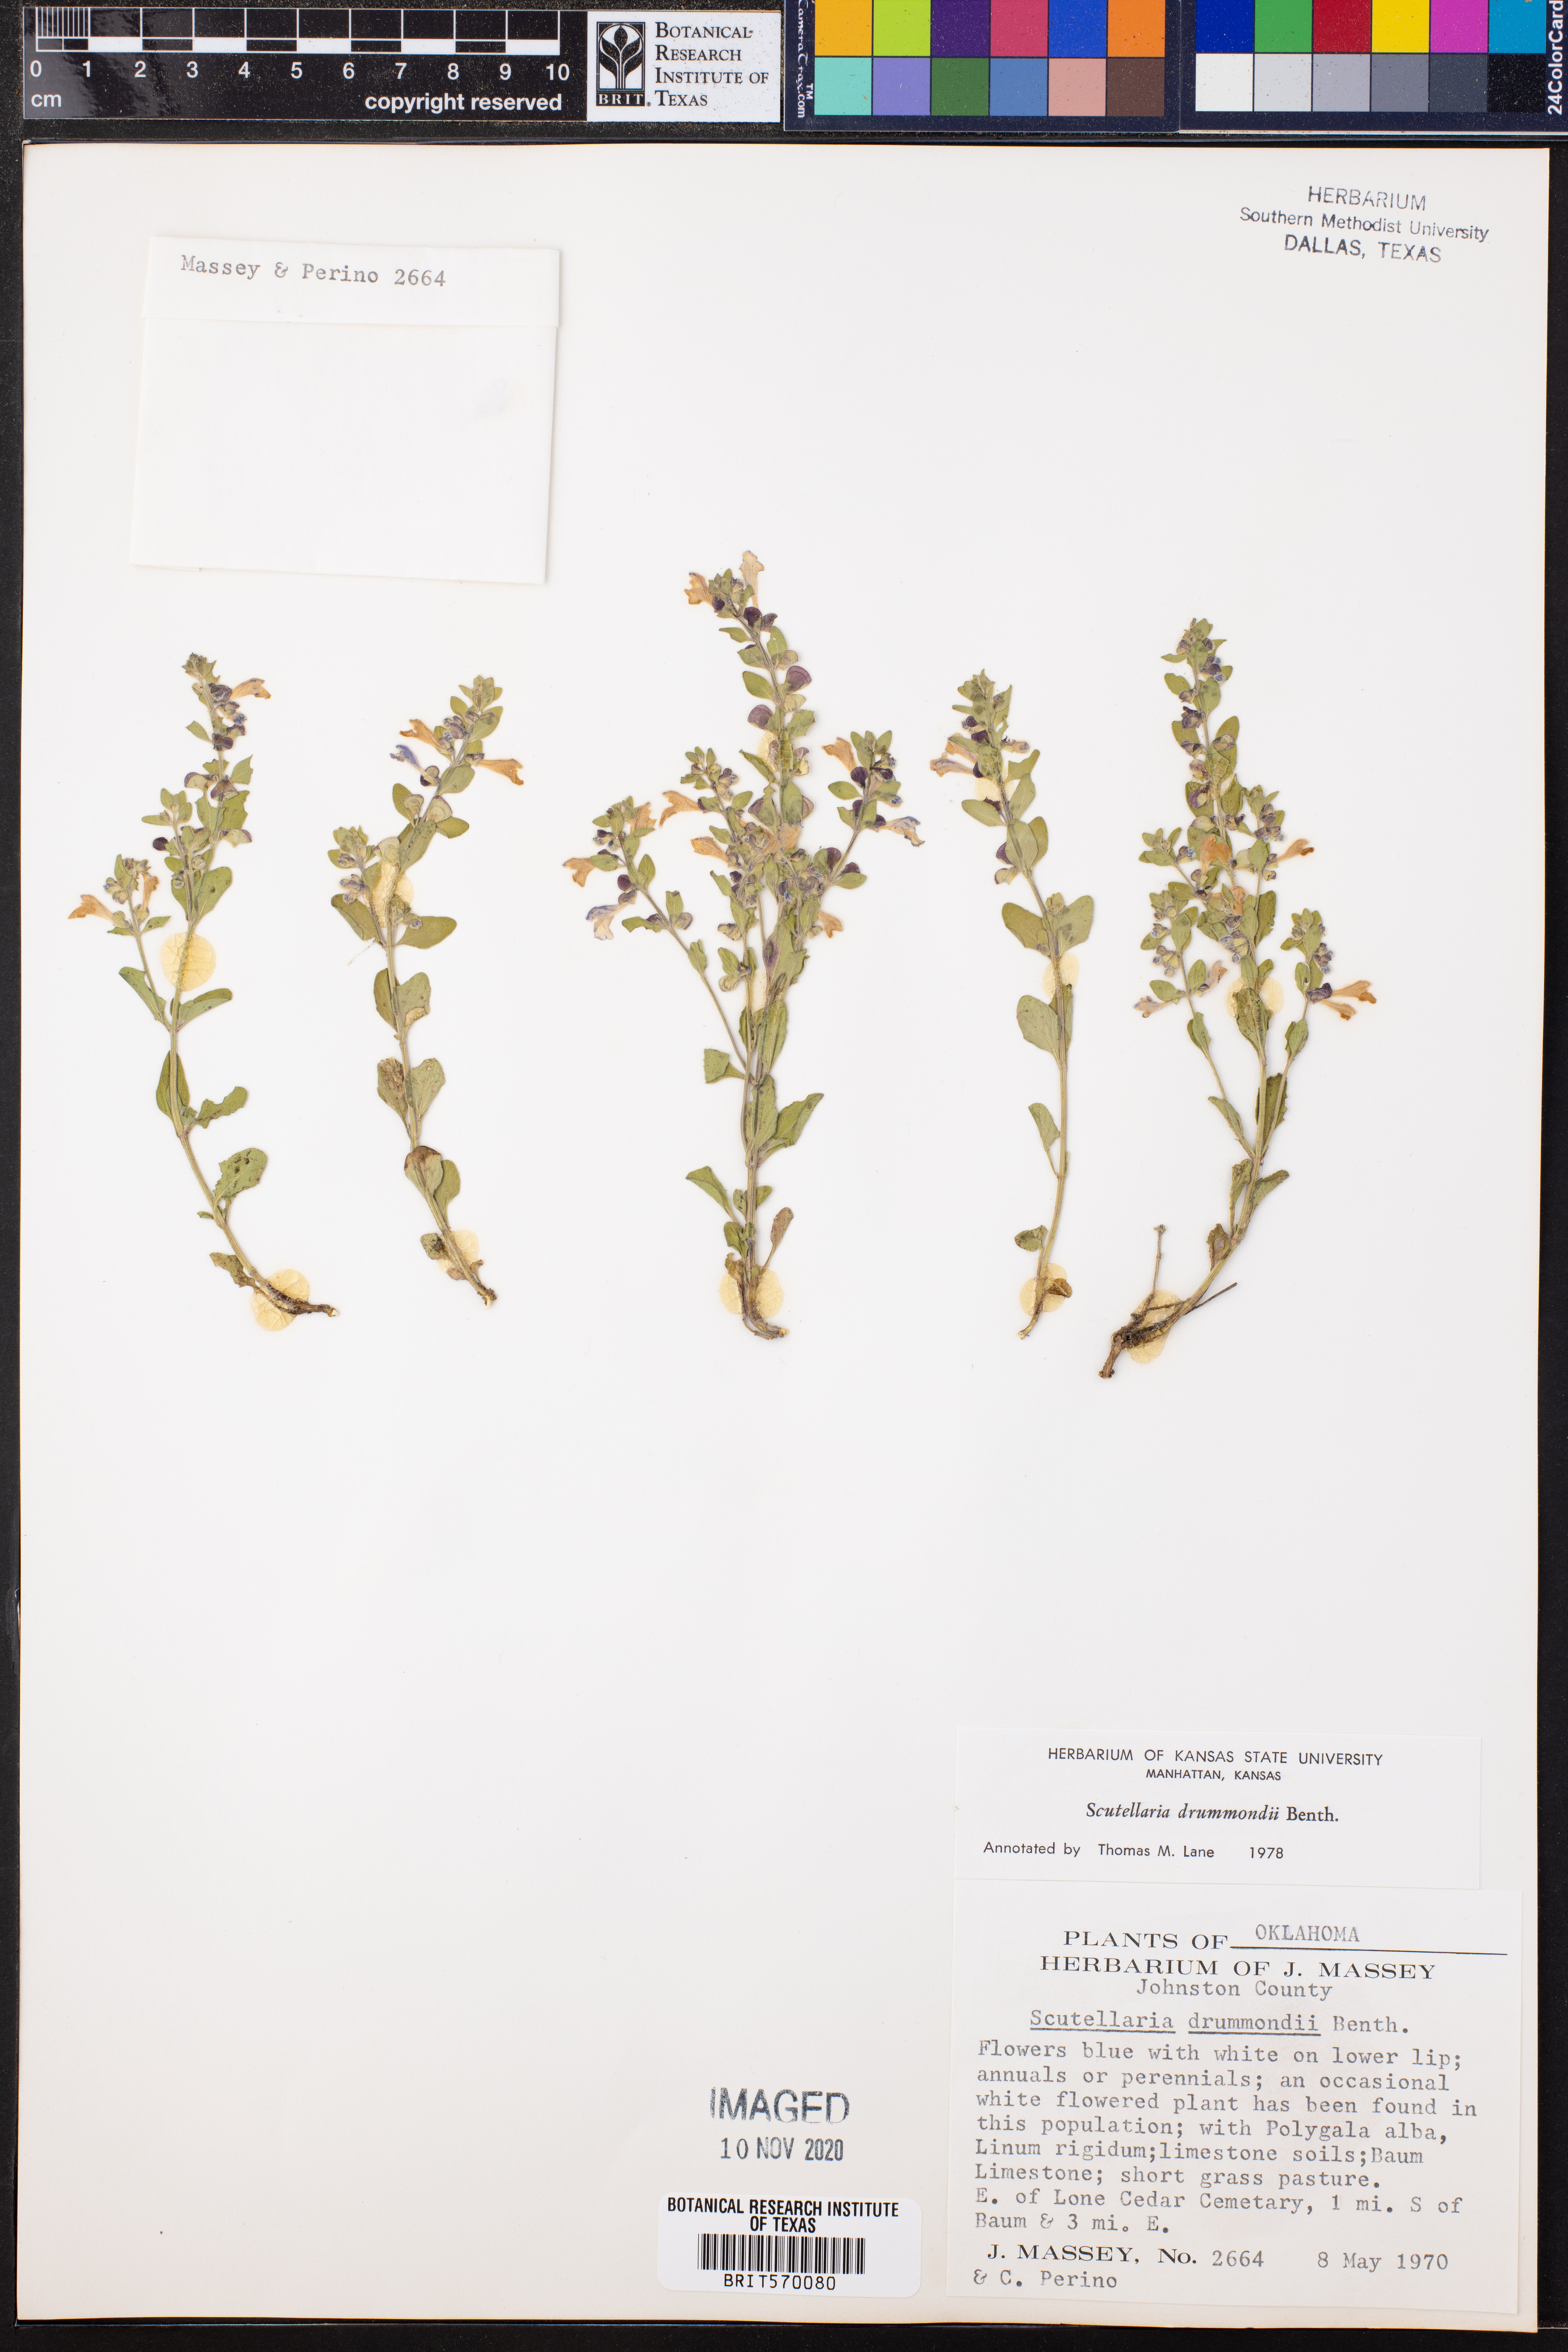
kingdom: Plantae
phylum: Tracheophyta
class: Magnoliopsida
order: Lamiales
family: Lamiaceae
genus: Scutellaria
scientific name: Scutellaria drummondii
